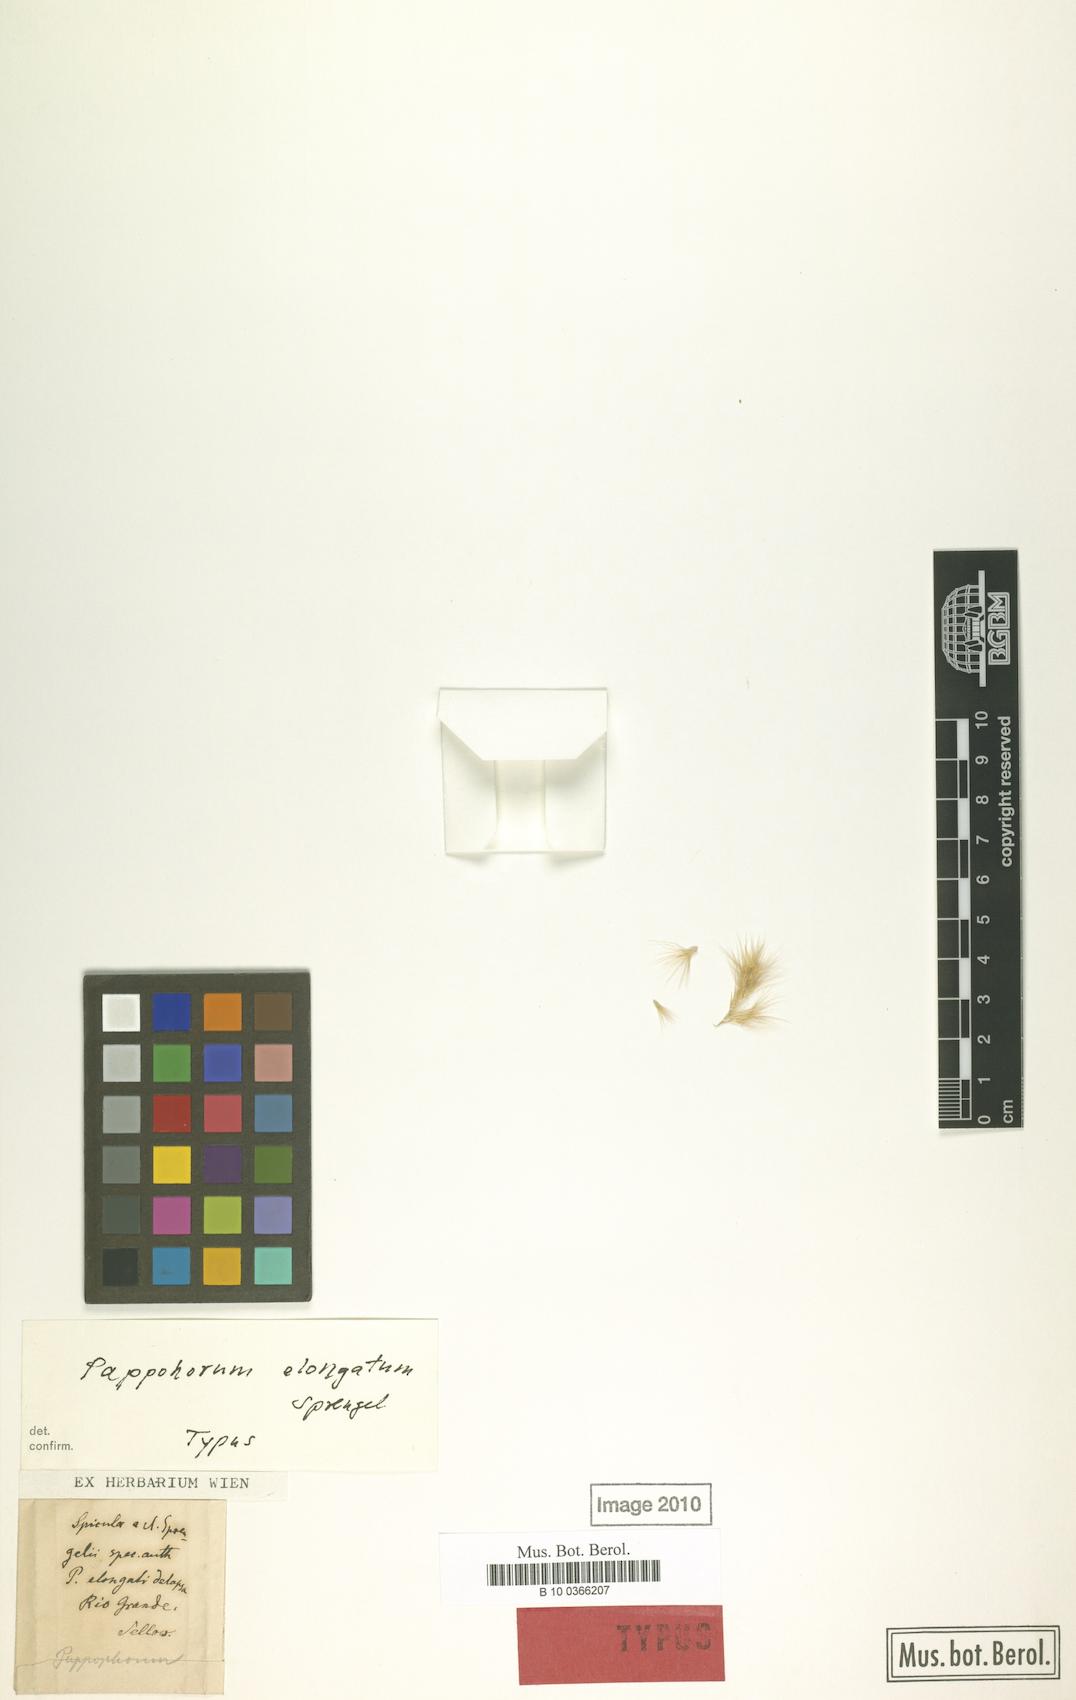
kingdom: Plantae
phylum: Tracheophyta
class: Liliopsida
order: Poales
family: Poaceae
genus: Pappophorum
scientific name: Pappophorum pappiferum
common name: Crabgrass
